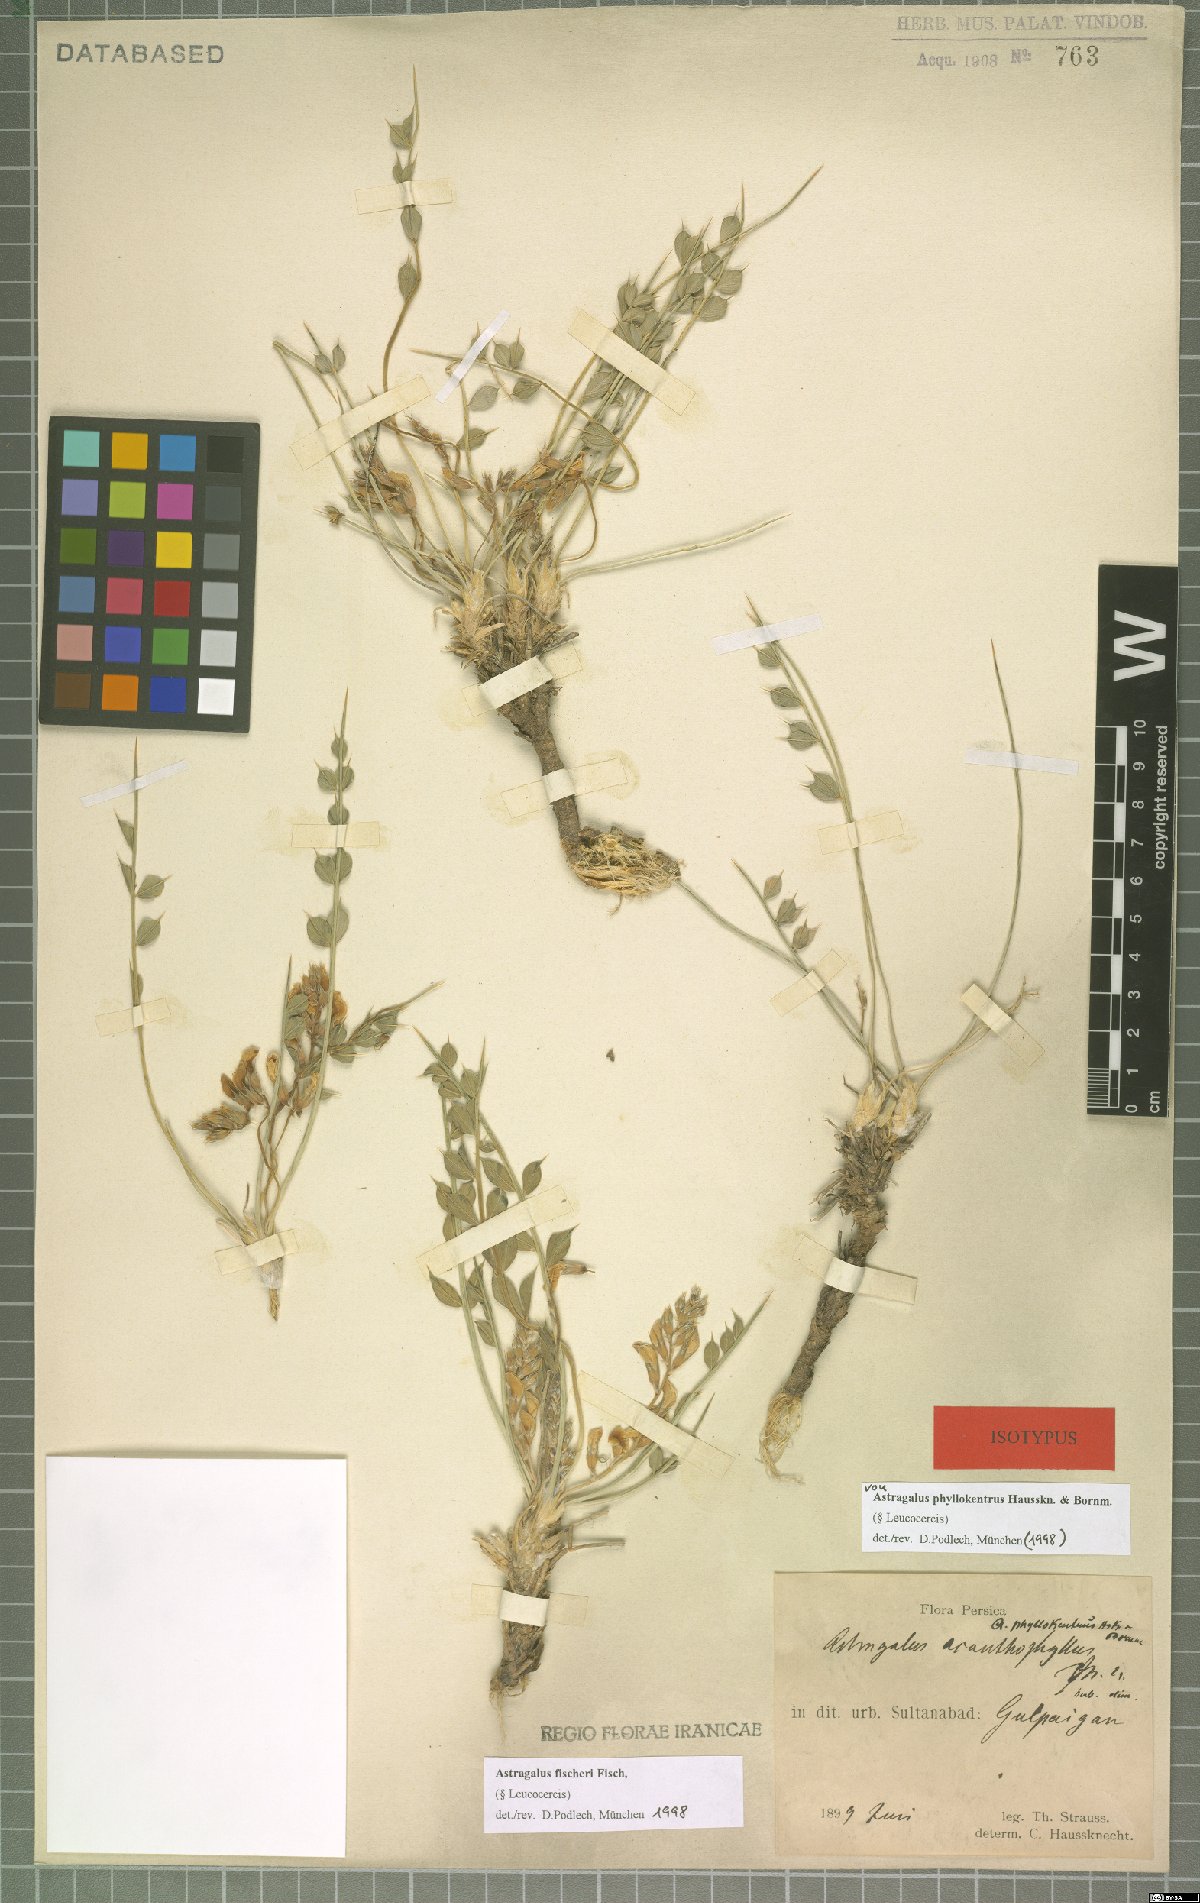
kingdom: Plantae
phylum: Tracheophyta
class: Magnoliopsida
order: Fabales
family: Fabaceae
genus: Astragalus
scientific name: Astragalus fischeri
